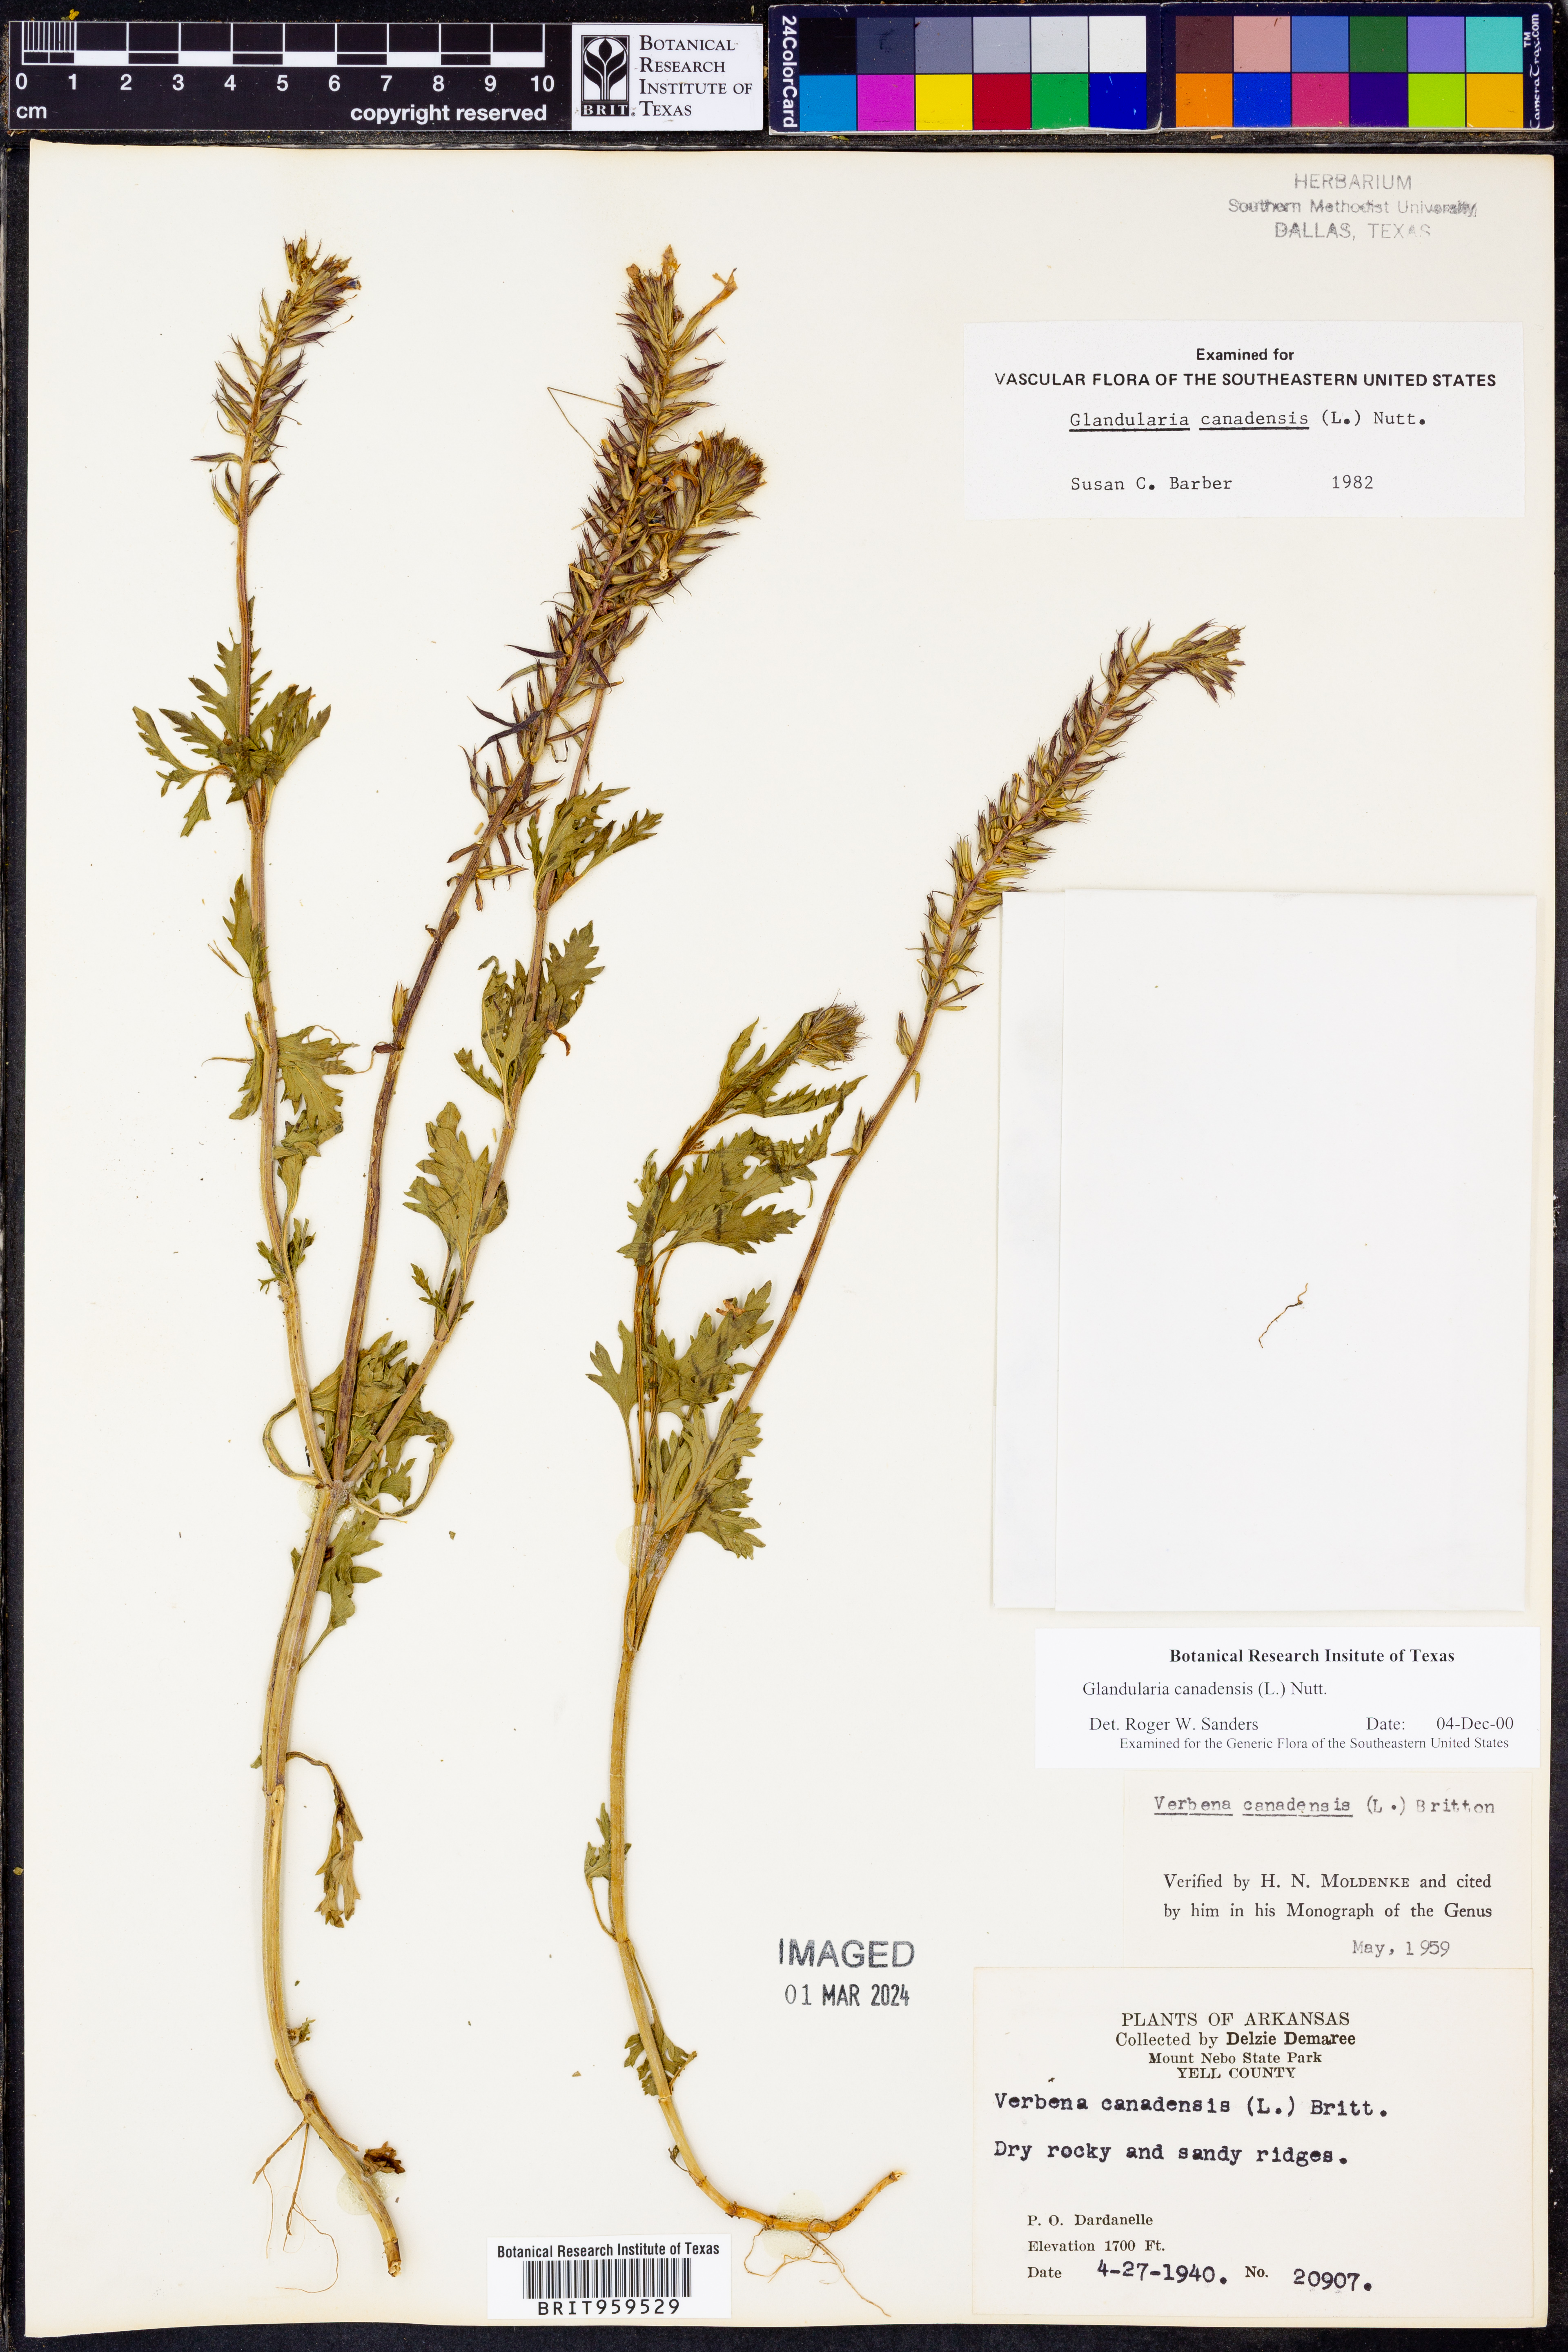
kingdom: Plantae
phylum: Tracheophyta
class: Magnoliopsida
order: Lamiales
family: Verbenaceae
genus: Verbena
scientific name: Verbena canadensis
